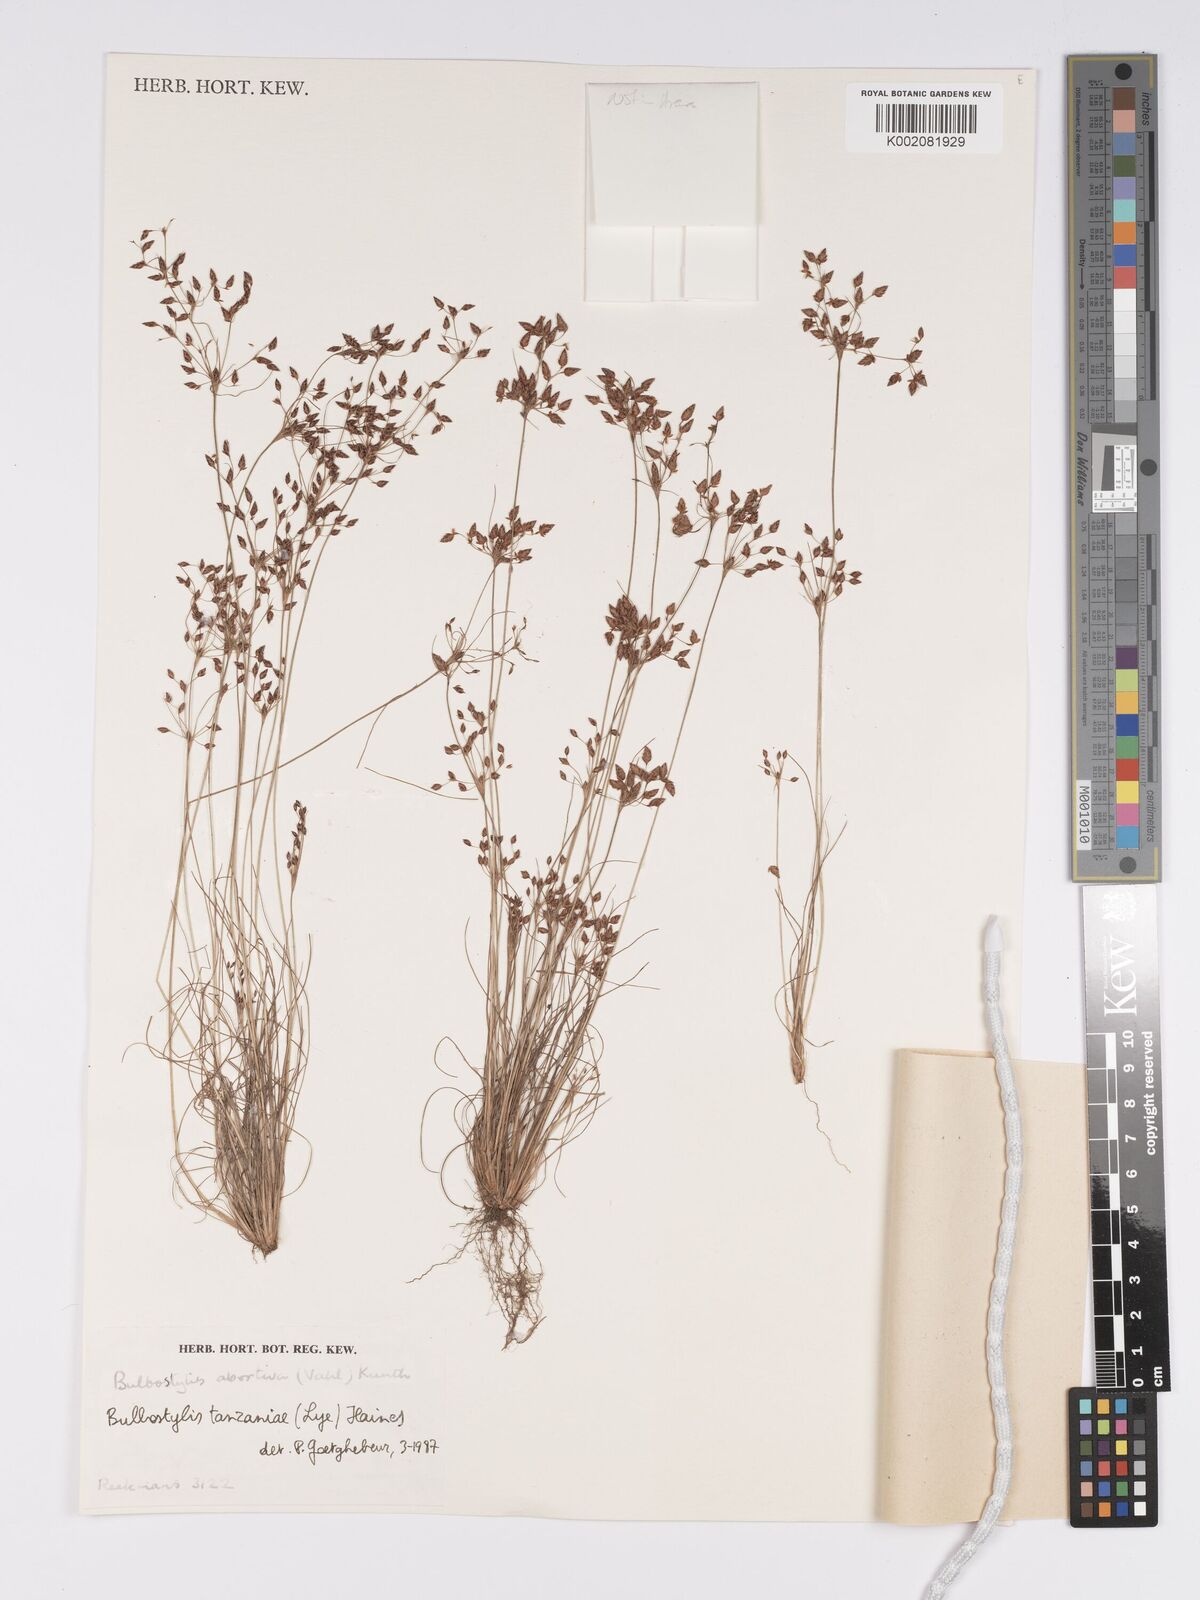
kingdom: Plantae
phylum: Tracheophyta
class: Liliopsida
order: Poales
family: Cyperaceae
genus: Bulbostylis
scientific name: Bulbostylis tanzaniae
